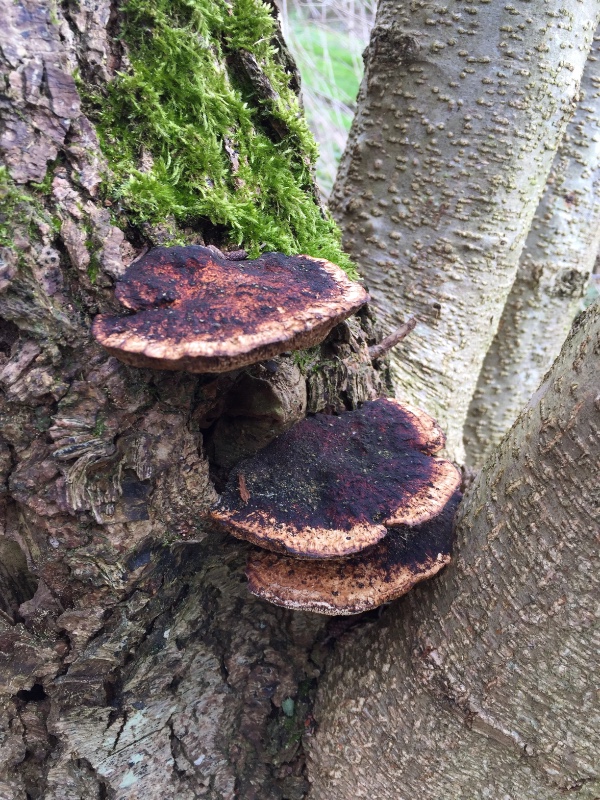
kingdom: Fungi
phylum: Basidiomycota
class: Agaricomycetes
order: Polyporales
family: Polyporaceae
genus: Daedaleopsis
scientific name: Daedaleopsis confragosa
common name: rødmende læderporesvamp
